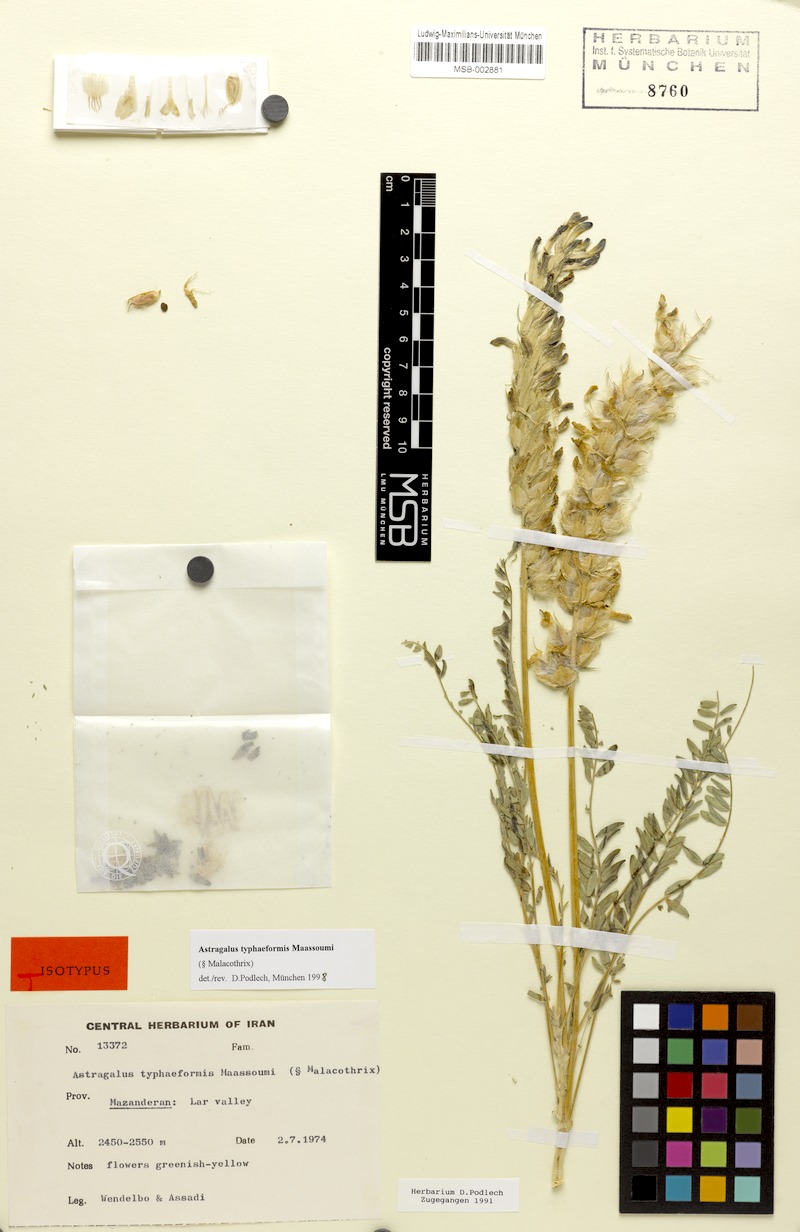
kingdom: Plantae
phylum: Tracheophyta
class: Magnoliopsida
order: Fabales
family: Fabaceae
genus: Astragalus
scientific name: Astragalus typhaeformis
